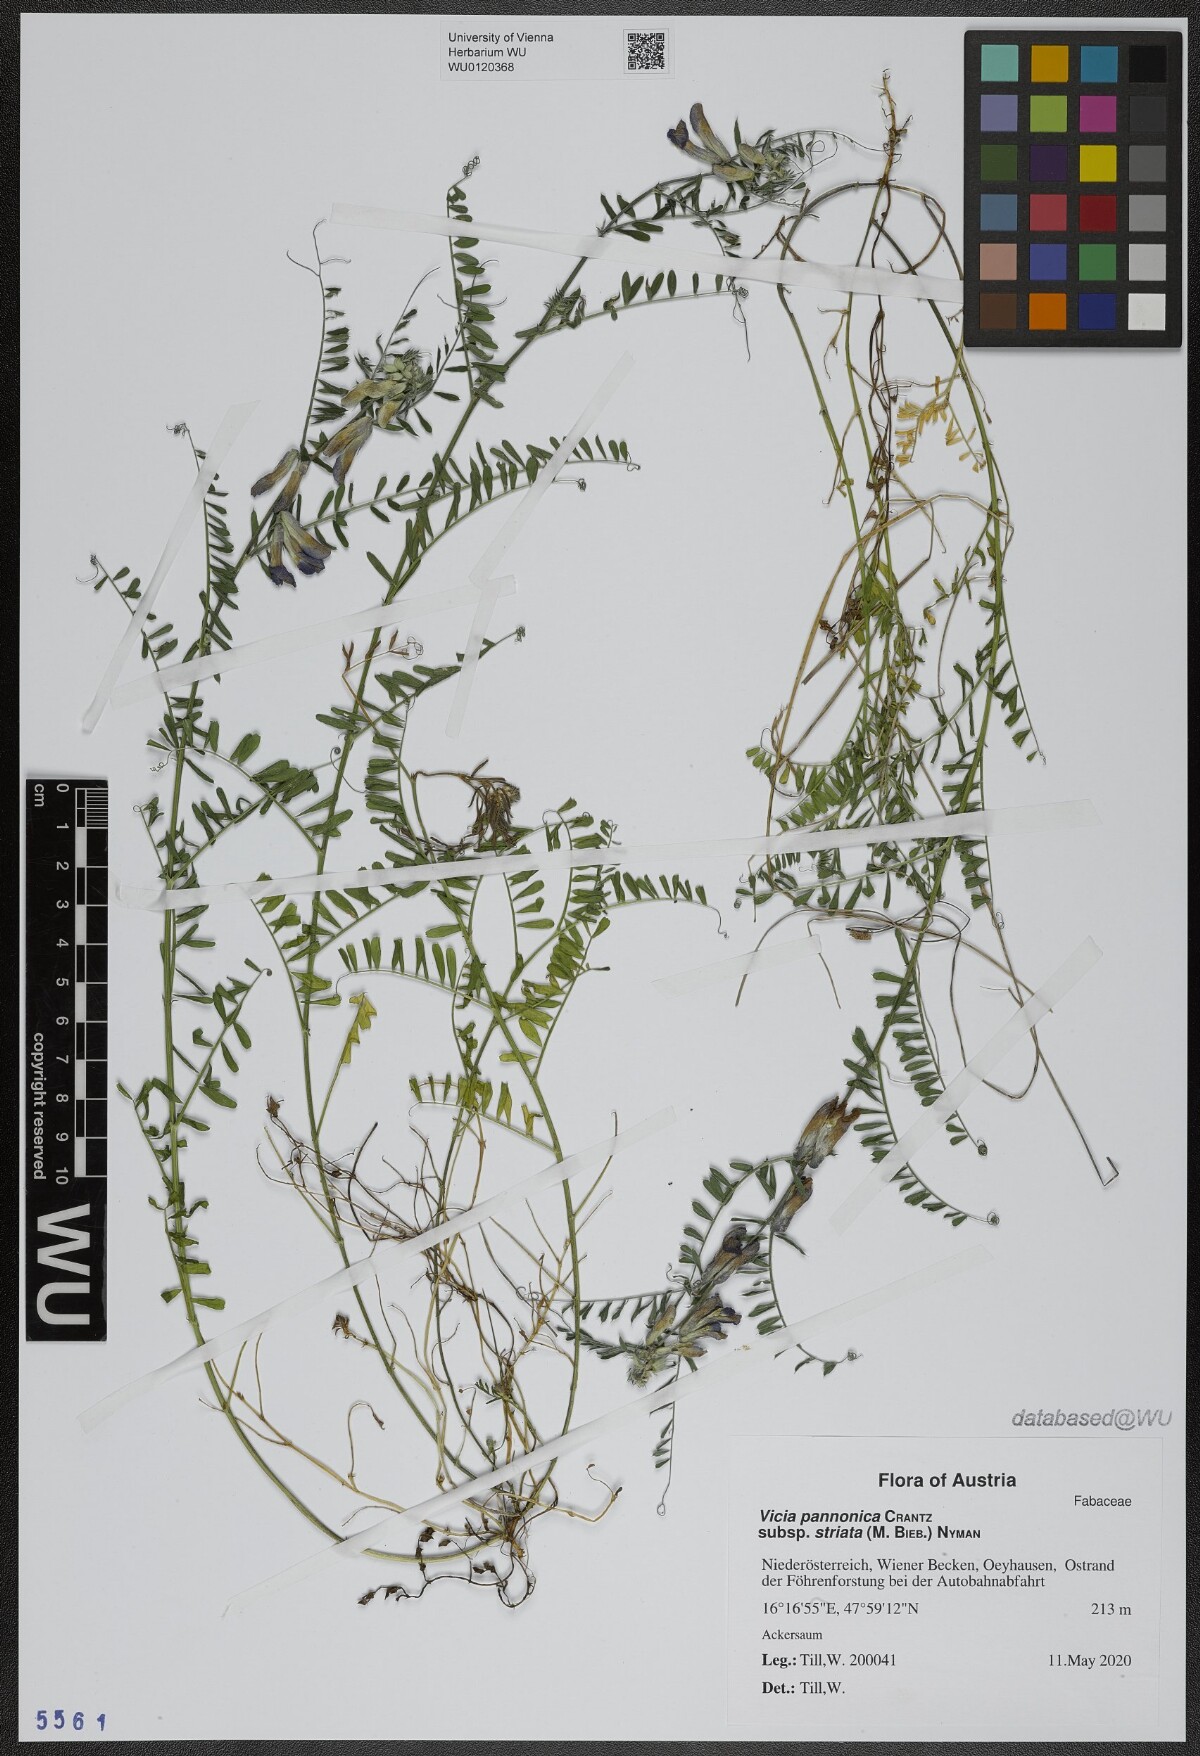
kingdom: Plantae
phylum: Tracheophyta
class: Magnoliopsida
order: Fabales
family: Fabaceae
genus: Vicia
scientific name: Vicia pannonica
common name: Hungarian vetch
